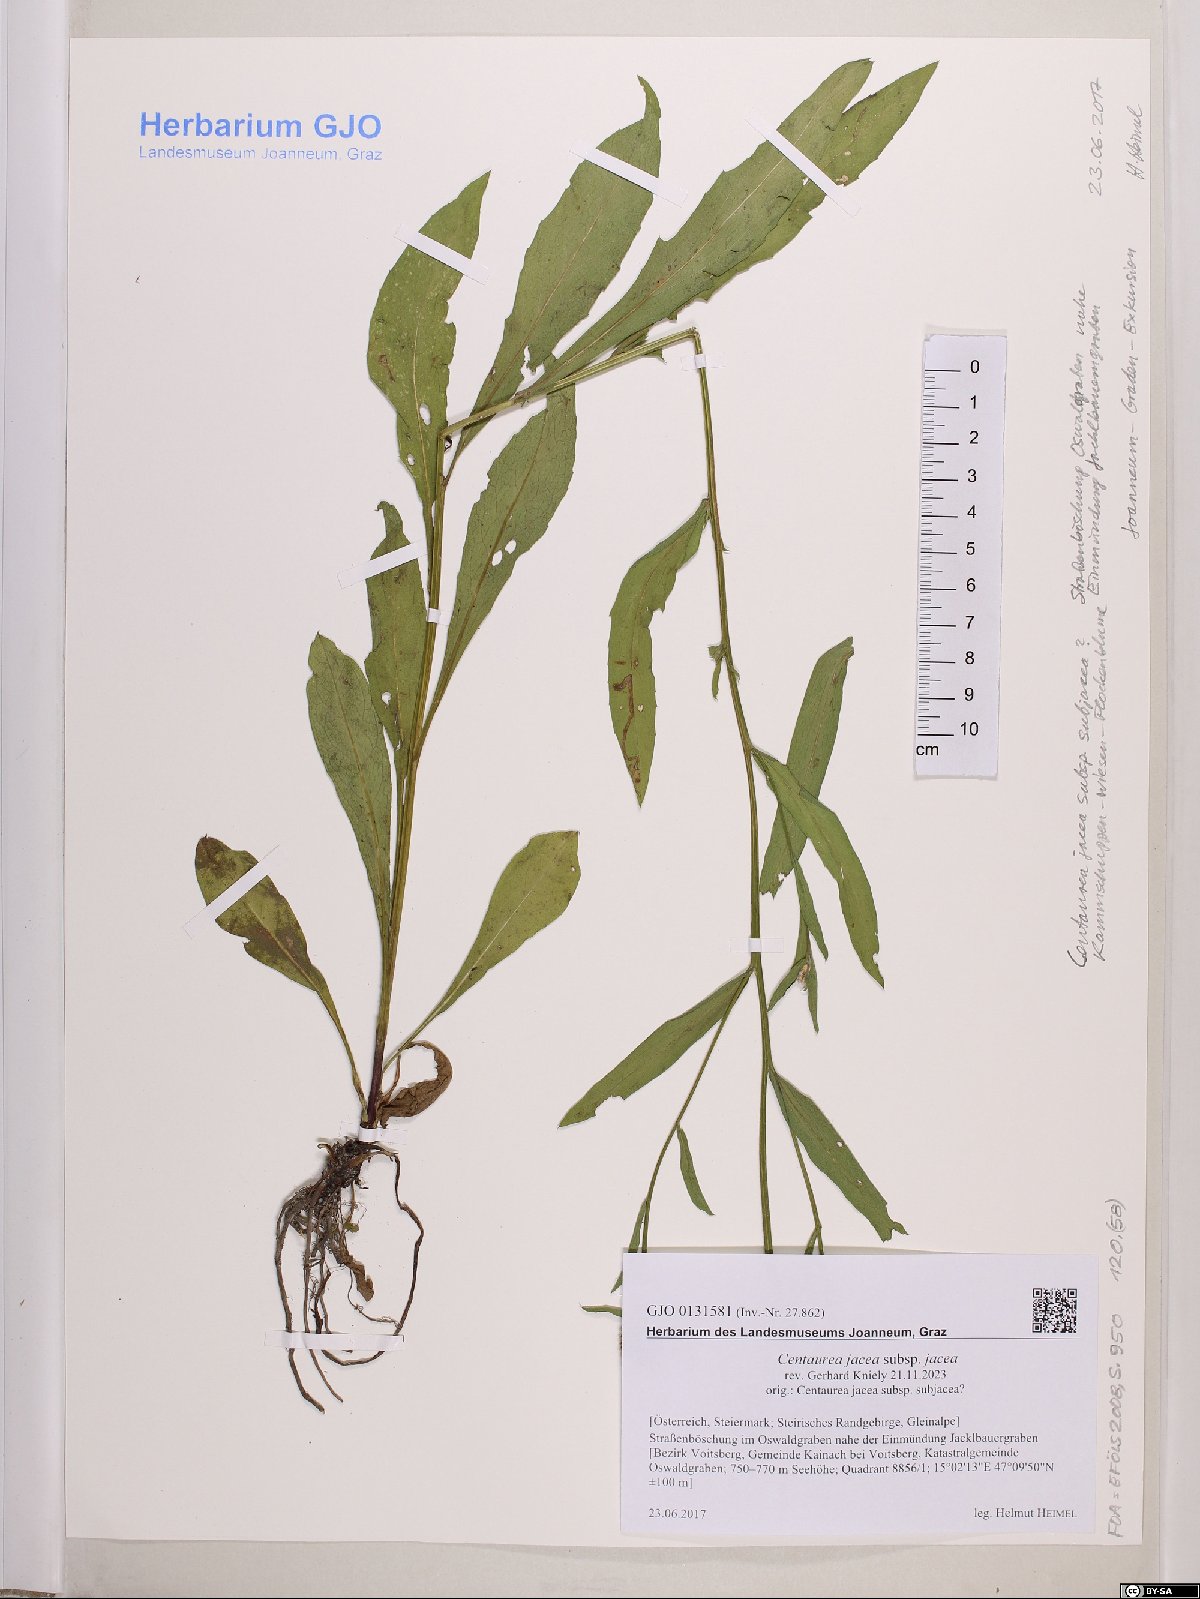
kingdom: Plantae
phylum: Tracheophyta
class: Magnoliopsida
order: Asterales
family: Asteraceae
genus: Centaurea
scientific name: Centaurea jacea
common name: Brown knapweed
